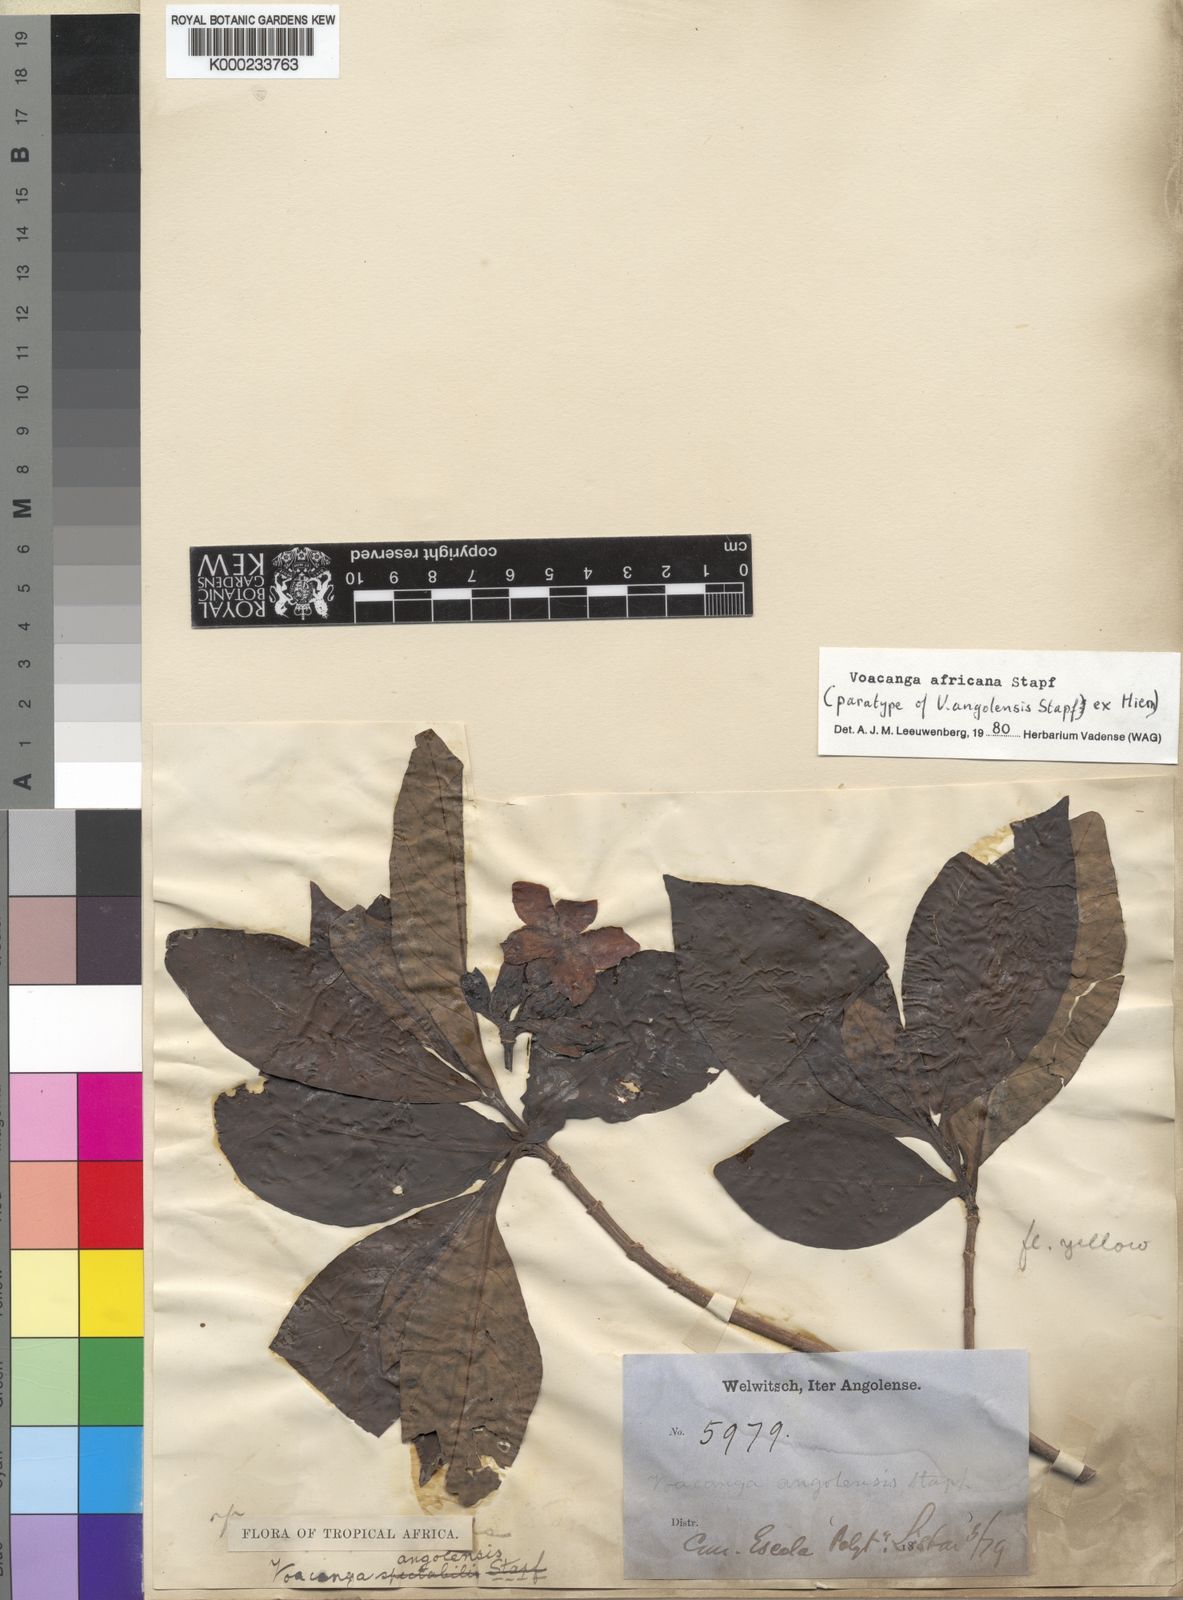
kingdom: Plantae
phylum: Tracheophyta
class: Magnoliopsida
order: Gentianales
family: Apocynaceae
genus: Voacanga
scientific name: Voacanga africana
